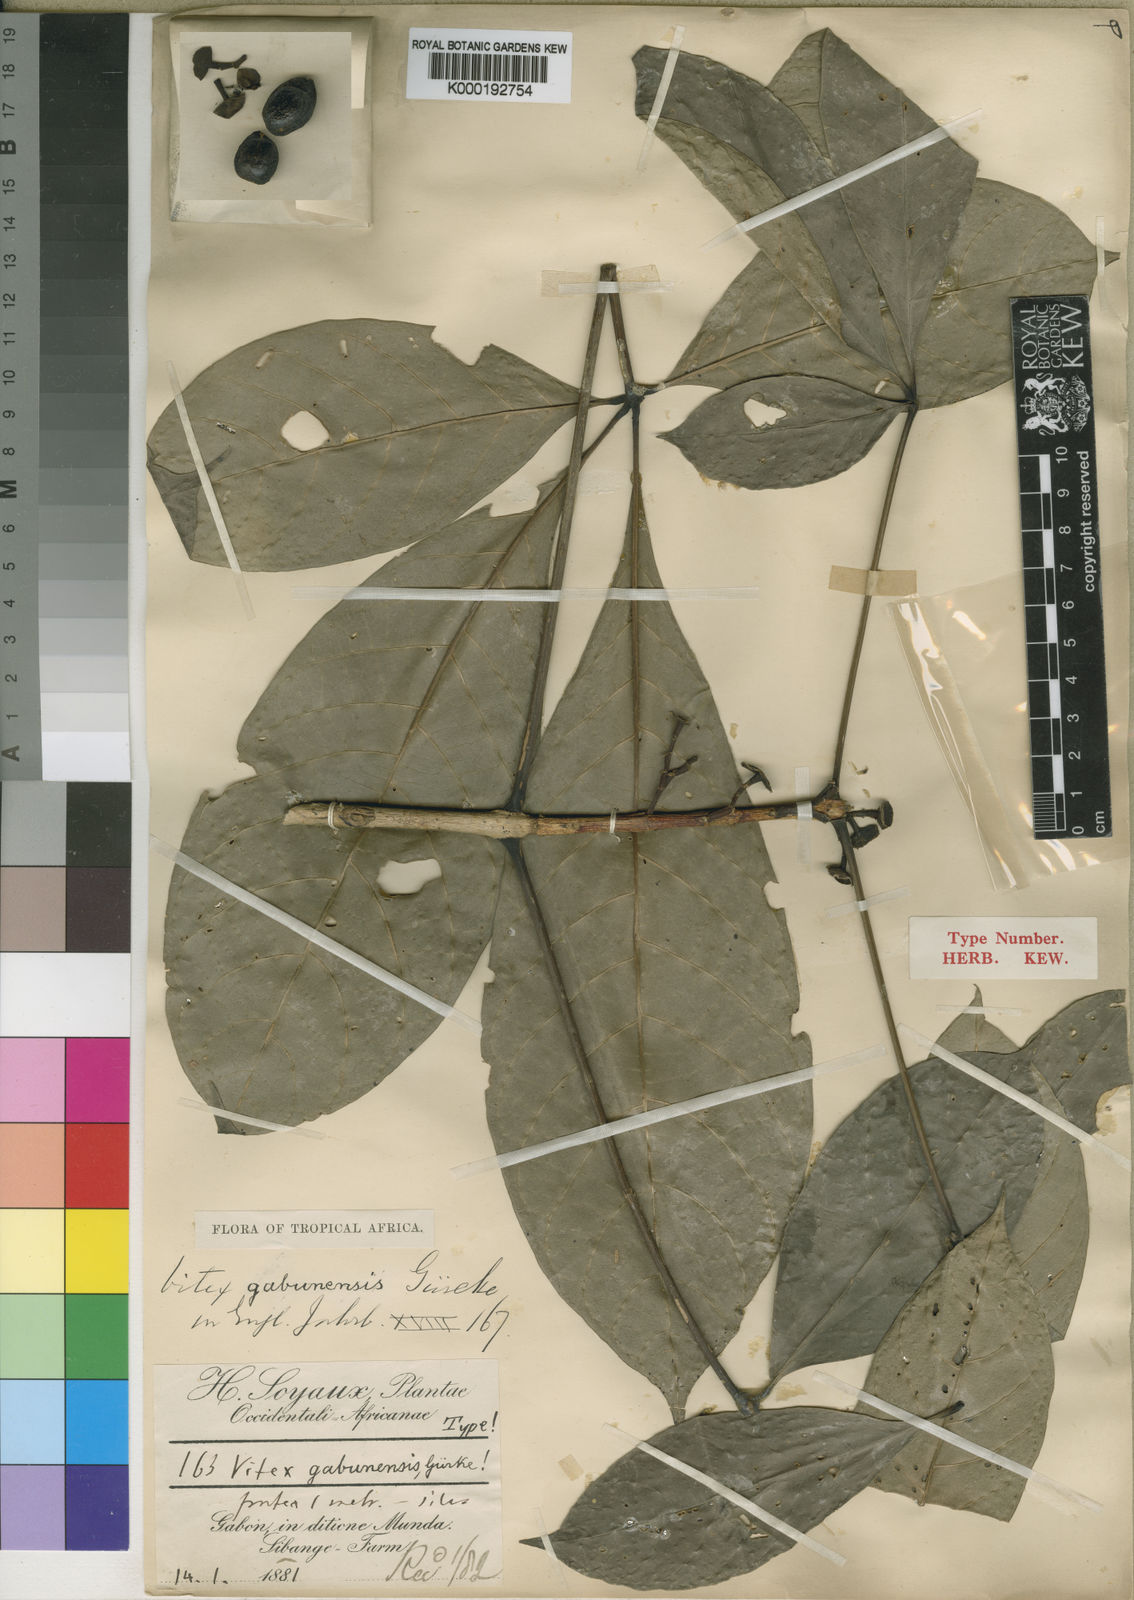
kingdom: Plantae
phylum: Tracheophyta
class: Magnoliopsida
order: Lamiales
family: Lamiaceae
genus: Vitex
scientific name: Vitex
